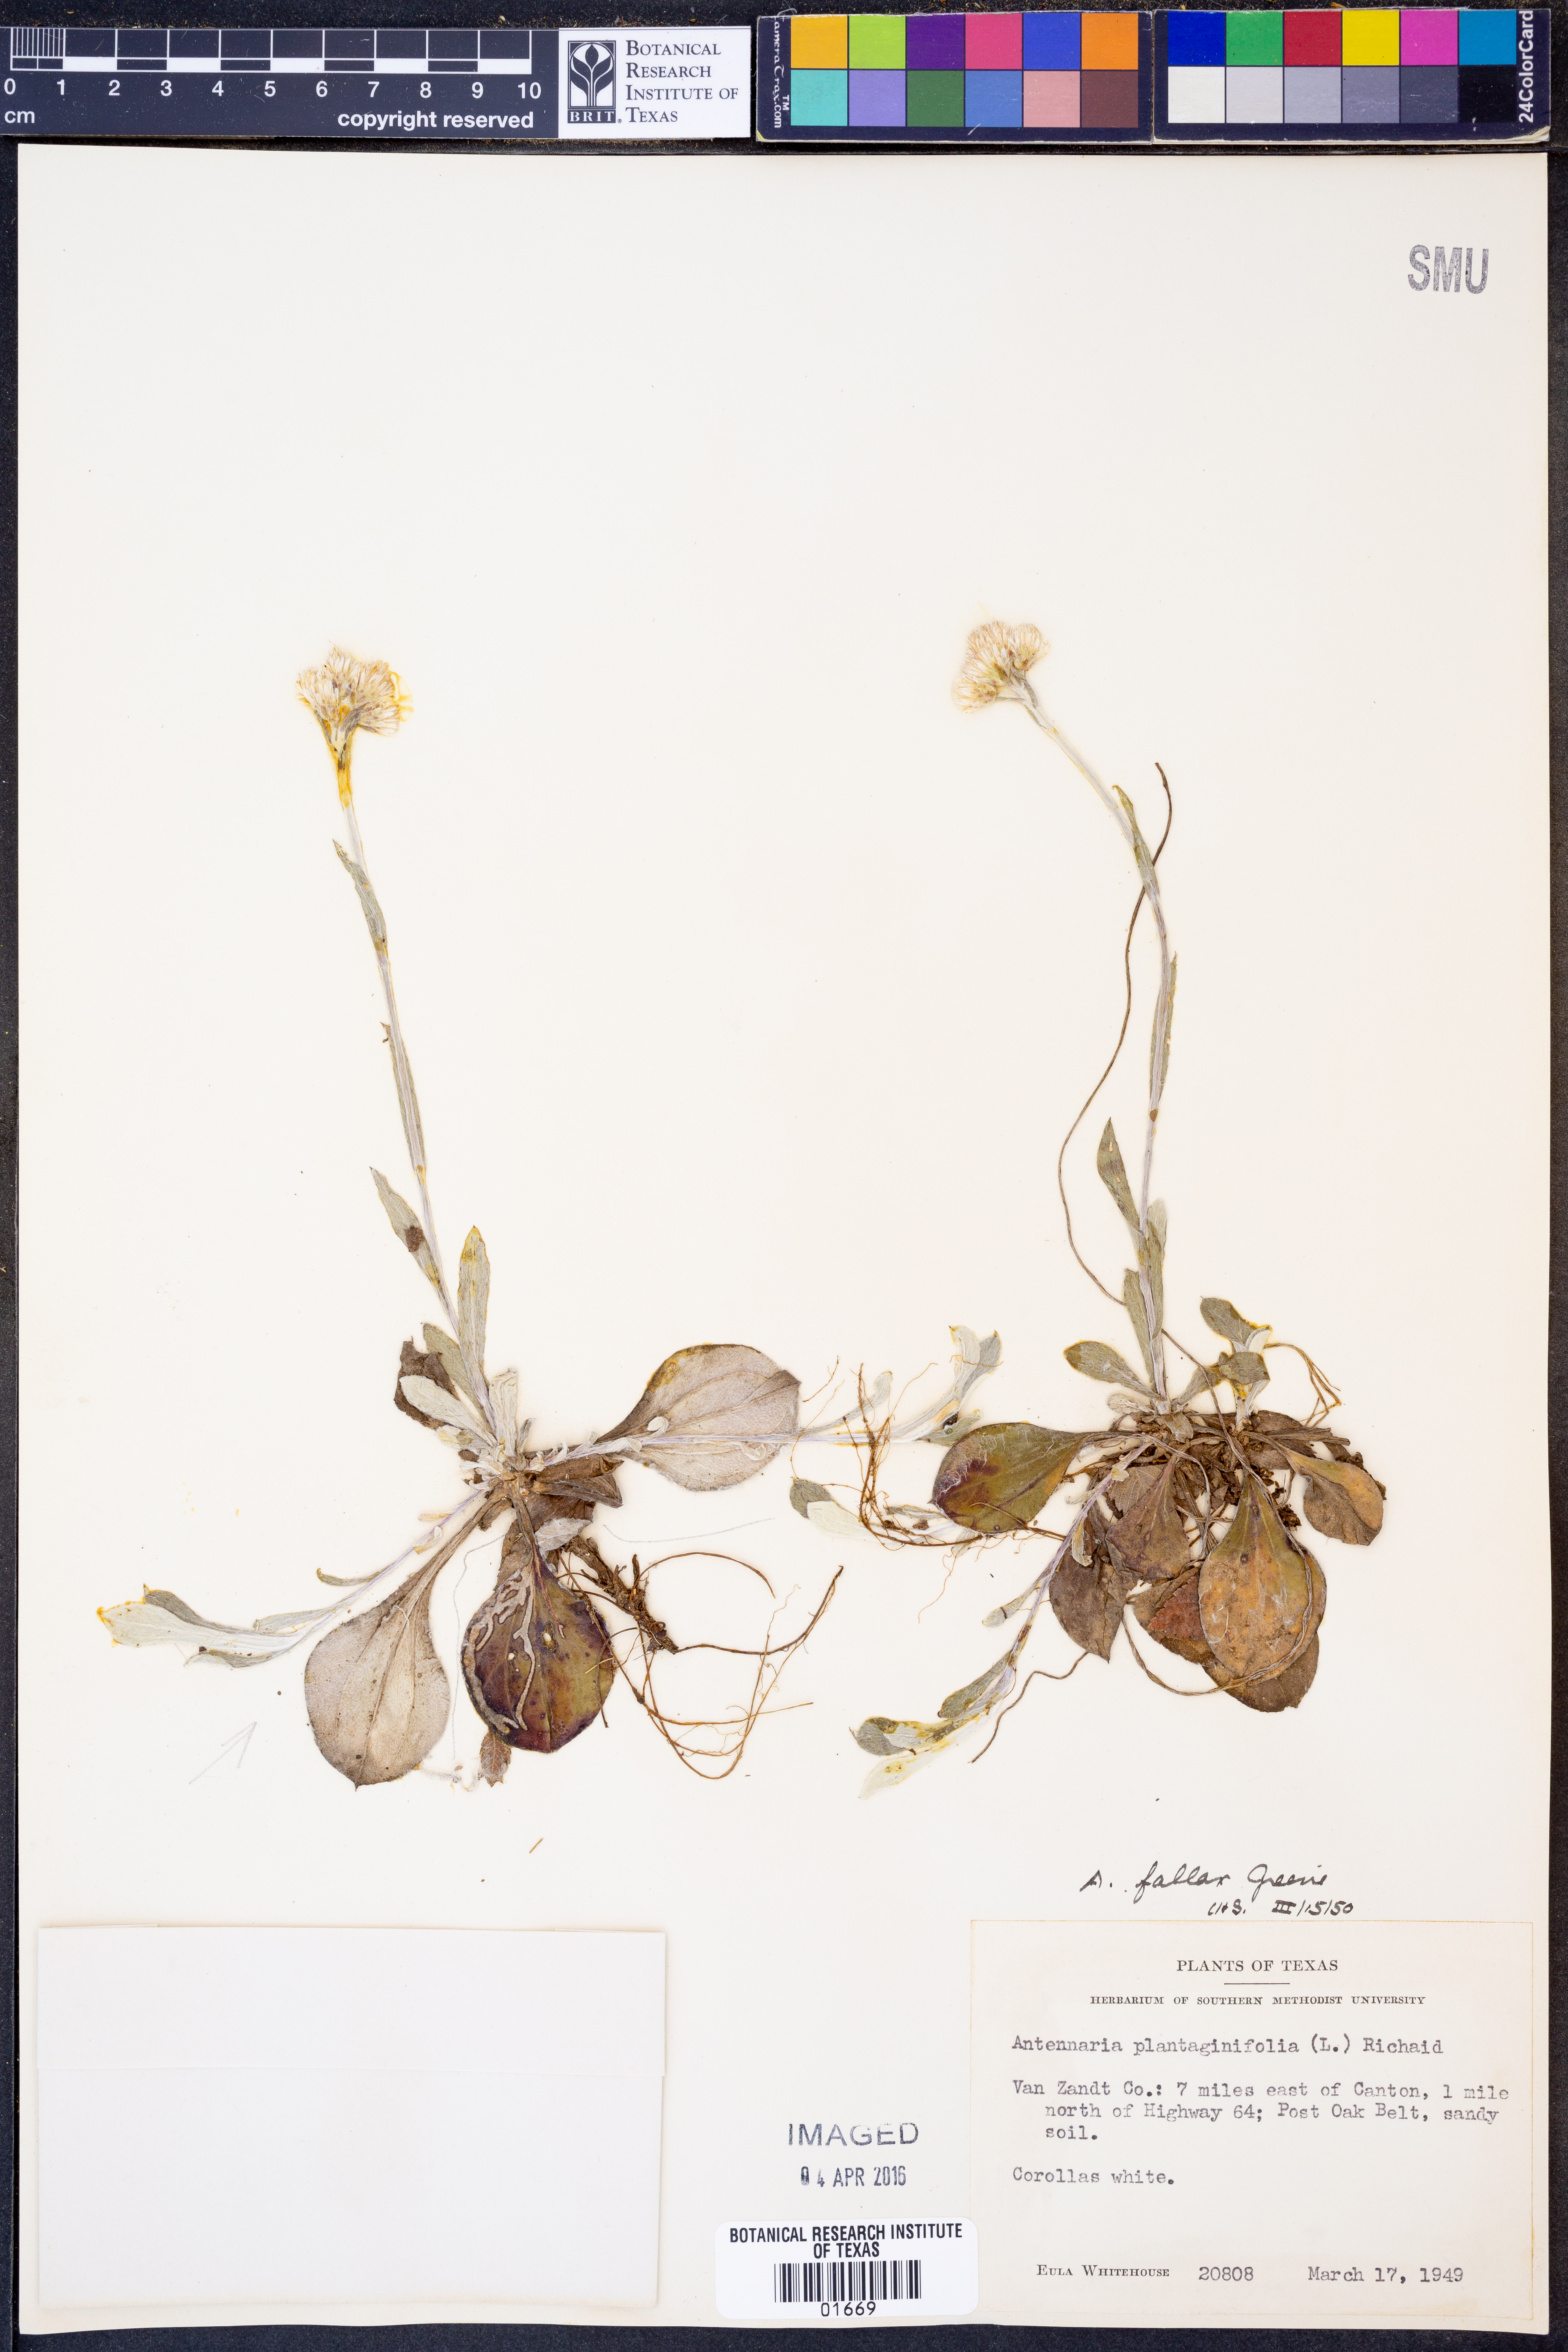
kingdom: Plantae
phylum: Tracheophyta
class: Magnoliopsida
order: Asterales
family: Asteraceae
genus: Antennaria
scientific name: Antennaria parlinii
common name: Parlin's pussytoes
